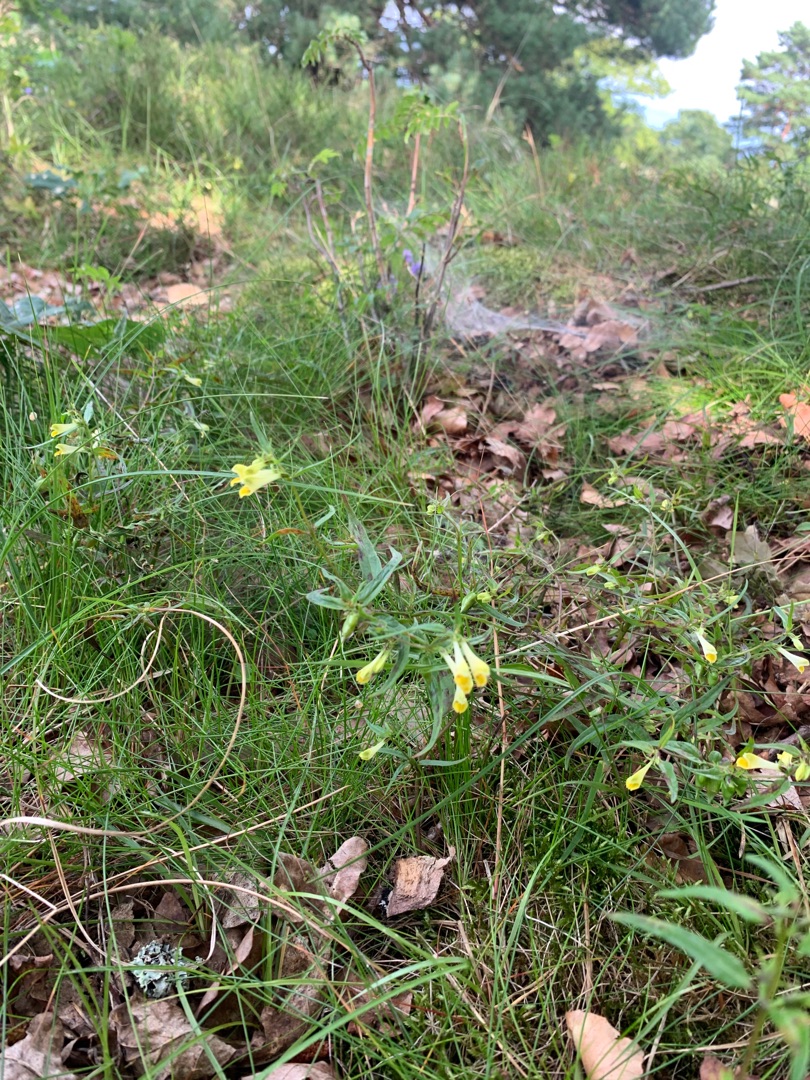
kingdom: Plantae
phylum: Tracheophyta
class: Magnoliopsida
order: Lamiales
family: Orobanchaceae
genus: Melampyrum
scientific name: Melampyrum pratense
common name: Almindelig kohvede
